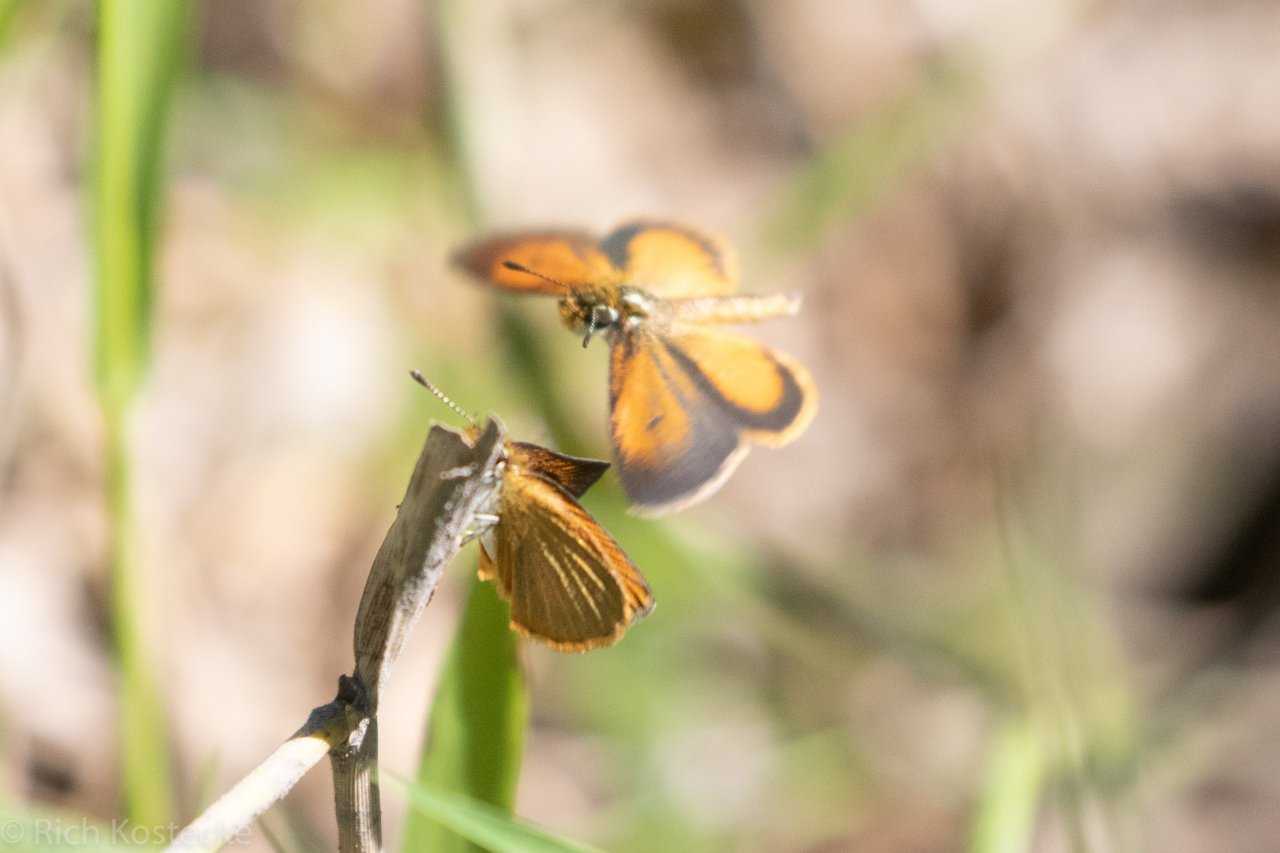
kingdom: Animalia
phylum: Arthropoda
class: Insecta
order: Lepidoptera
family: Hesperiidae
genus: Ancyloxypha
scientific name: Ancyloxypha numitor
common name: Least Skipper
